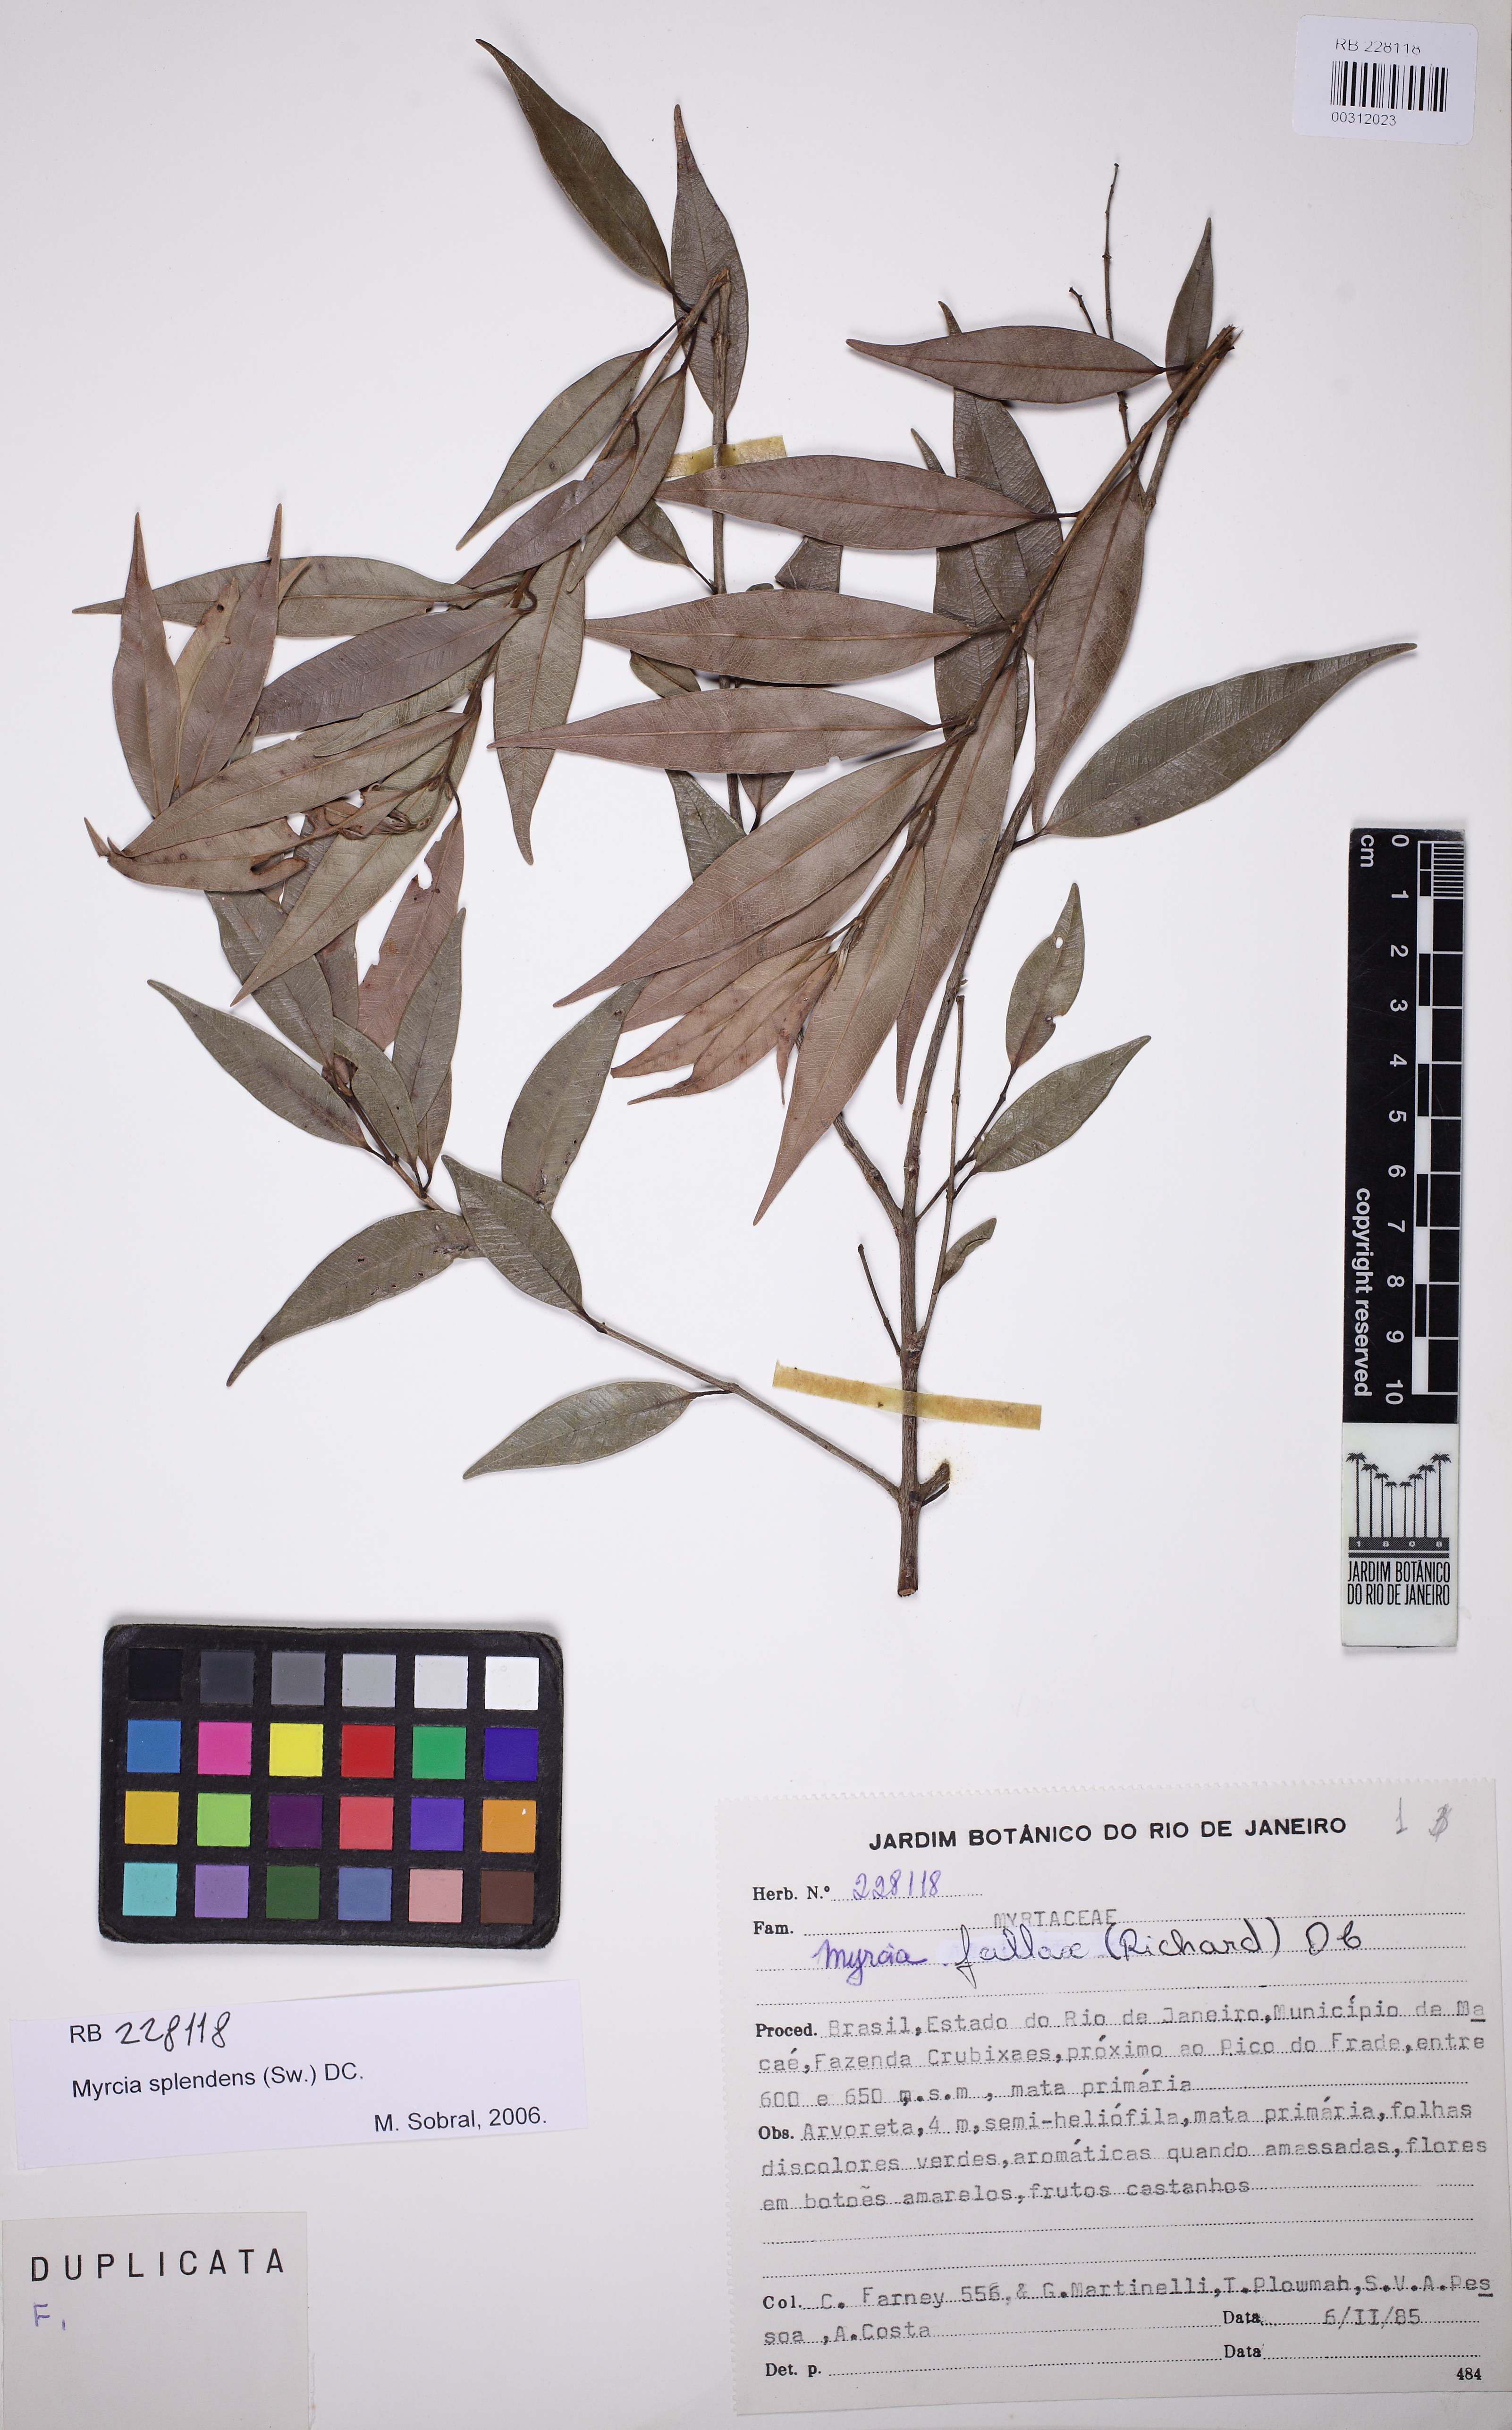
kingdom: Plantae
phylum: Tracheophyta
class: Magnoliopsida
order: Myrtales
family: Myrtaceae
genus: Myrcia
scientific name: Myrcia splendens
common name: Surinam cherry
